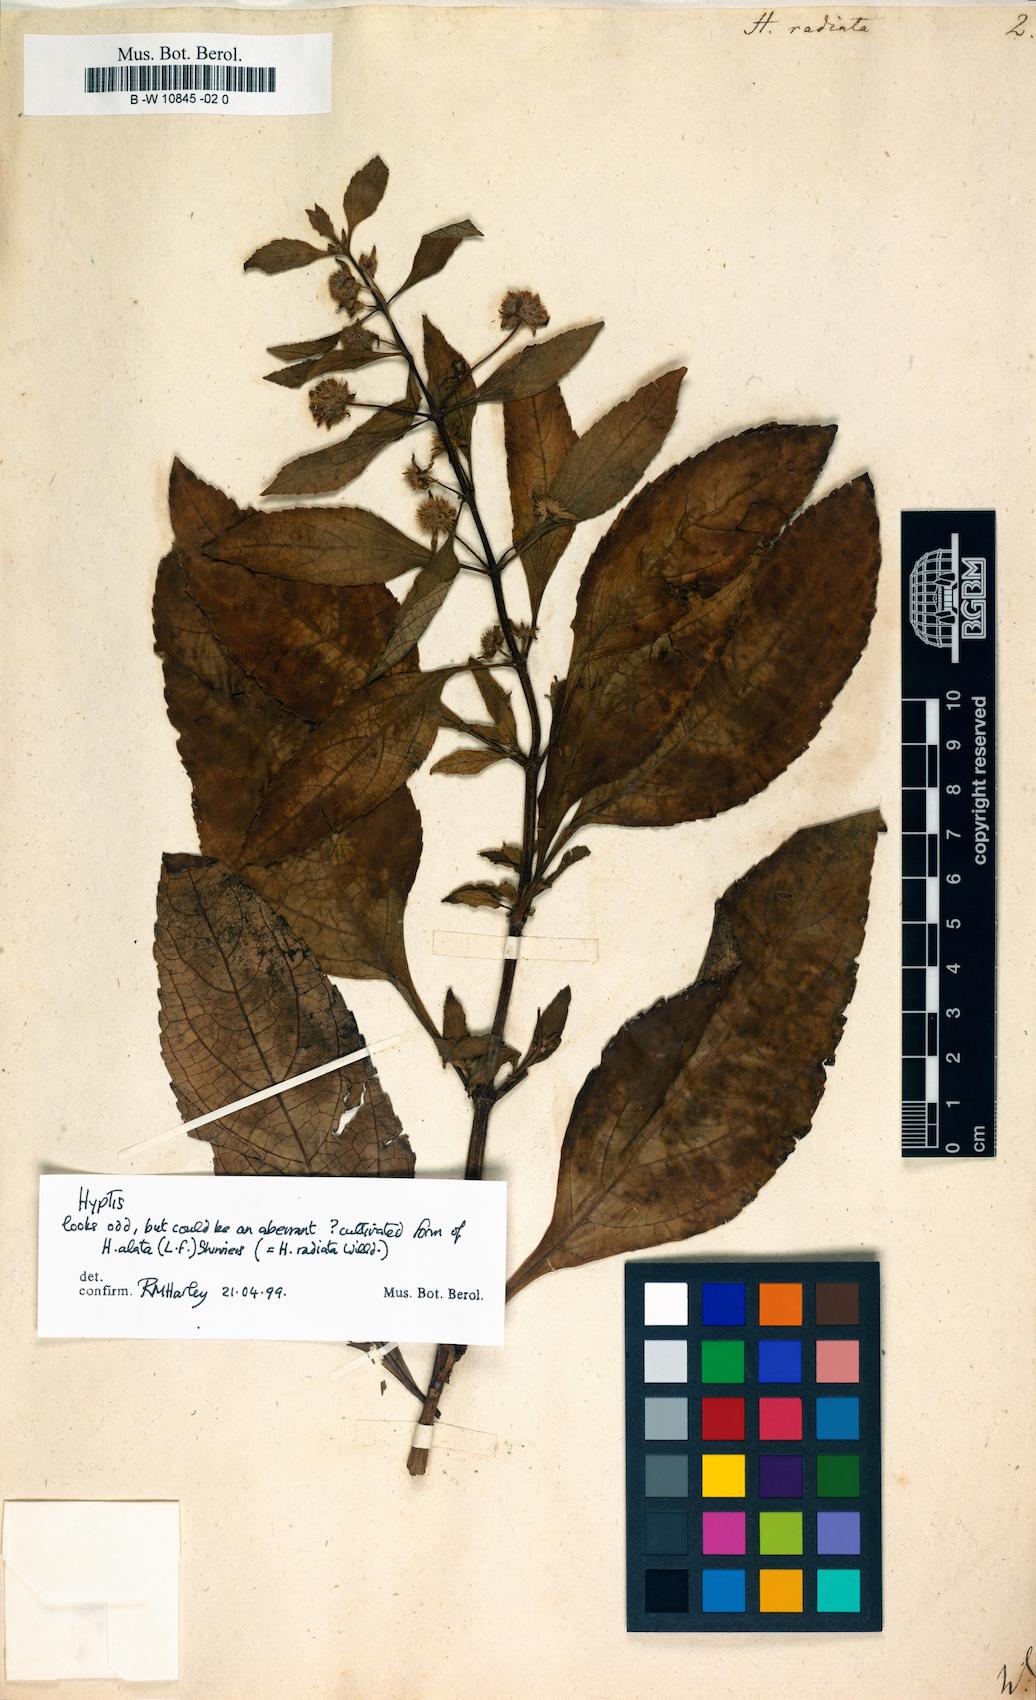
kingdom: Plantae
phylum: Tracheophyta
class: Magnoliopsida
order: Lamiales
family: Lamiaceae
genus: Hyptis
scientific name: Hyptis
